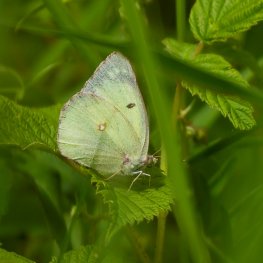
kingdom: Animalia
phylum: Arthropoda
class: Insecta
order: Lepidoptera
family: Pieridae
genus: Colias
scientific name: Colias philodice
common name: Clouded Sulphur
